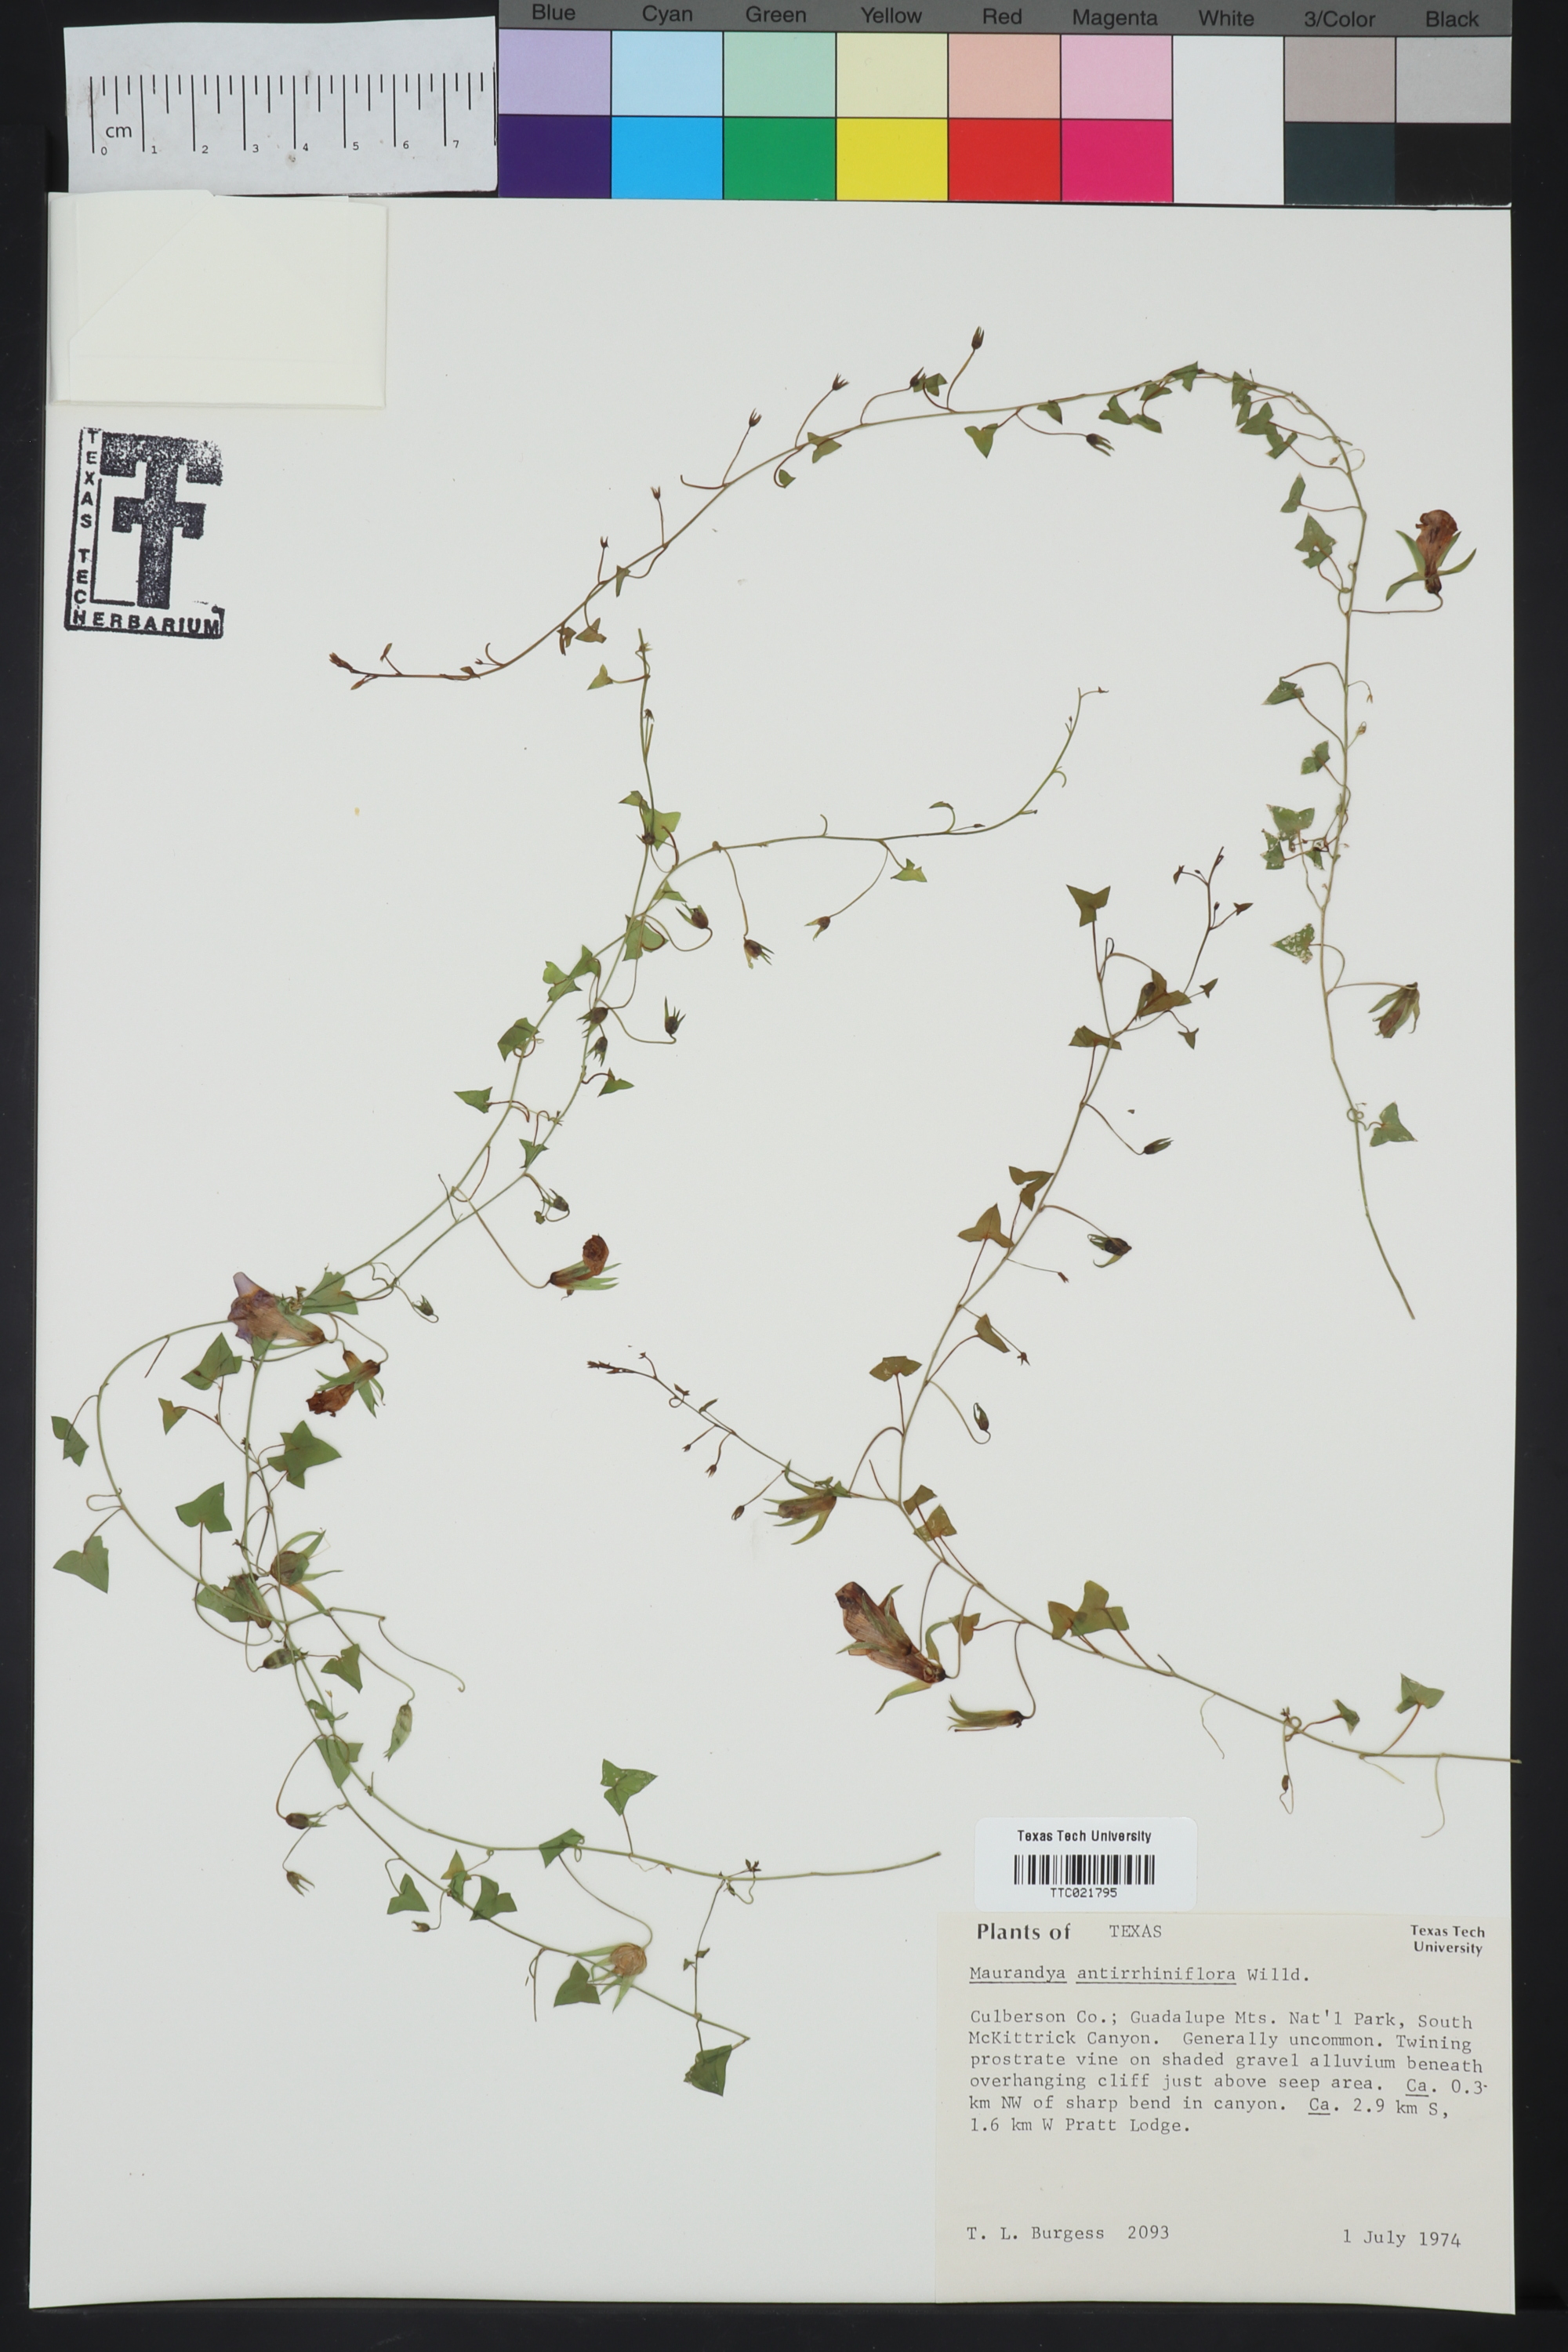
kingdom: Plantae
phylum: Tracheophyta
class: Magnoliopsida
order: Lamiales
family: Plantaginaceae
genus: Maurandella
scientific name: Maurandella antirrhiniflora
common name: Violet twining-snapdragon
